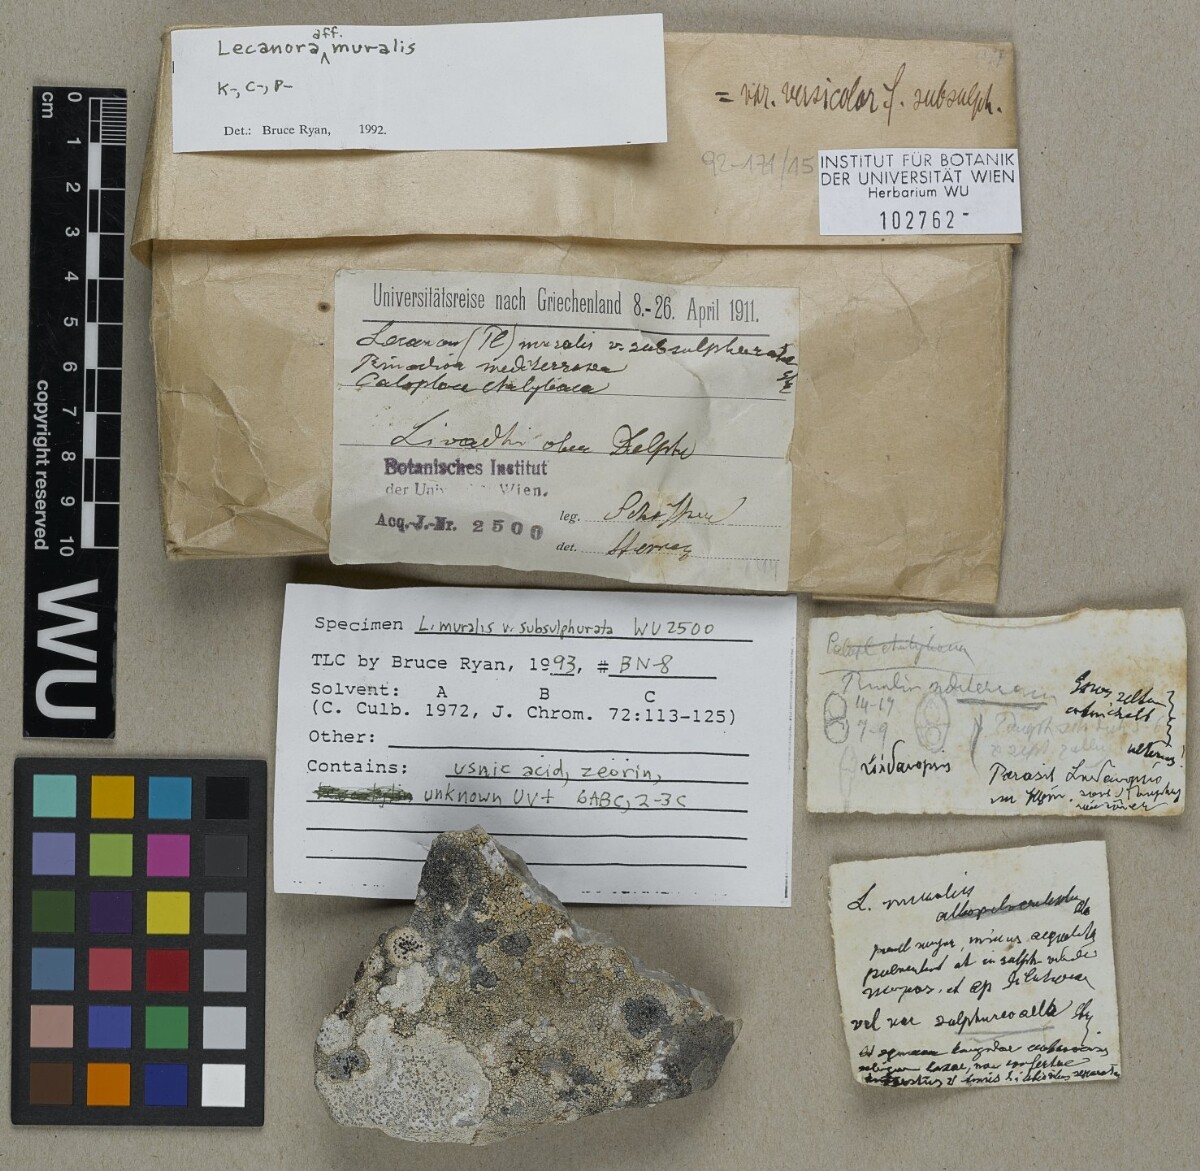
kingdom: Fungi
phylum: Ascomycota
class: Lecanoromycetes
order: Lecanorales
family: Lecanoraceae
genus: Protoparmeliopsis
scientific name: Protoparmeliopsis muralis
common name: Stonewall rim lichen
